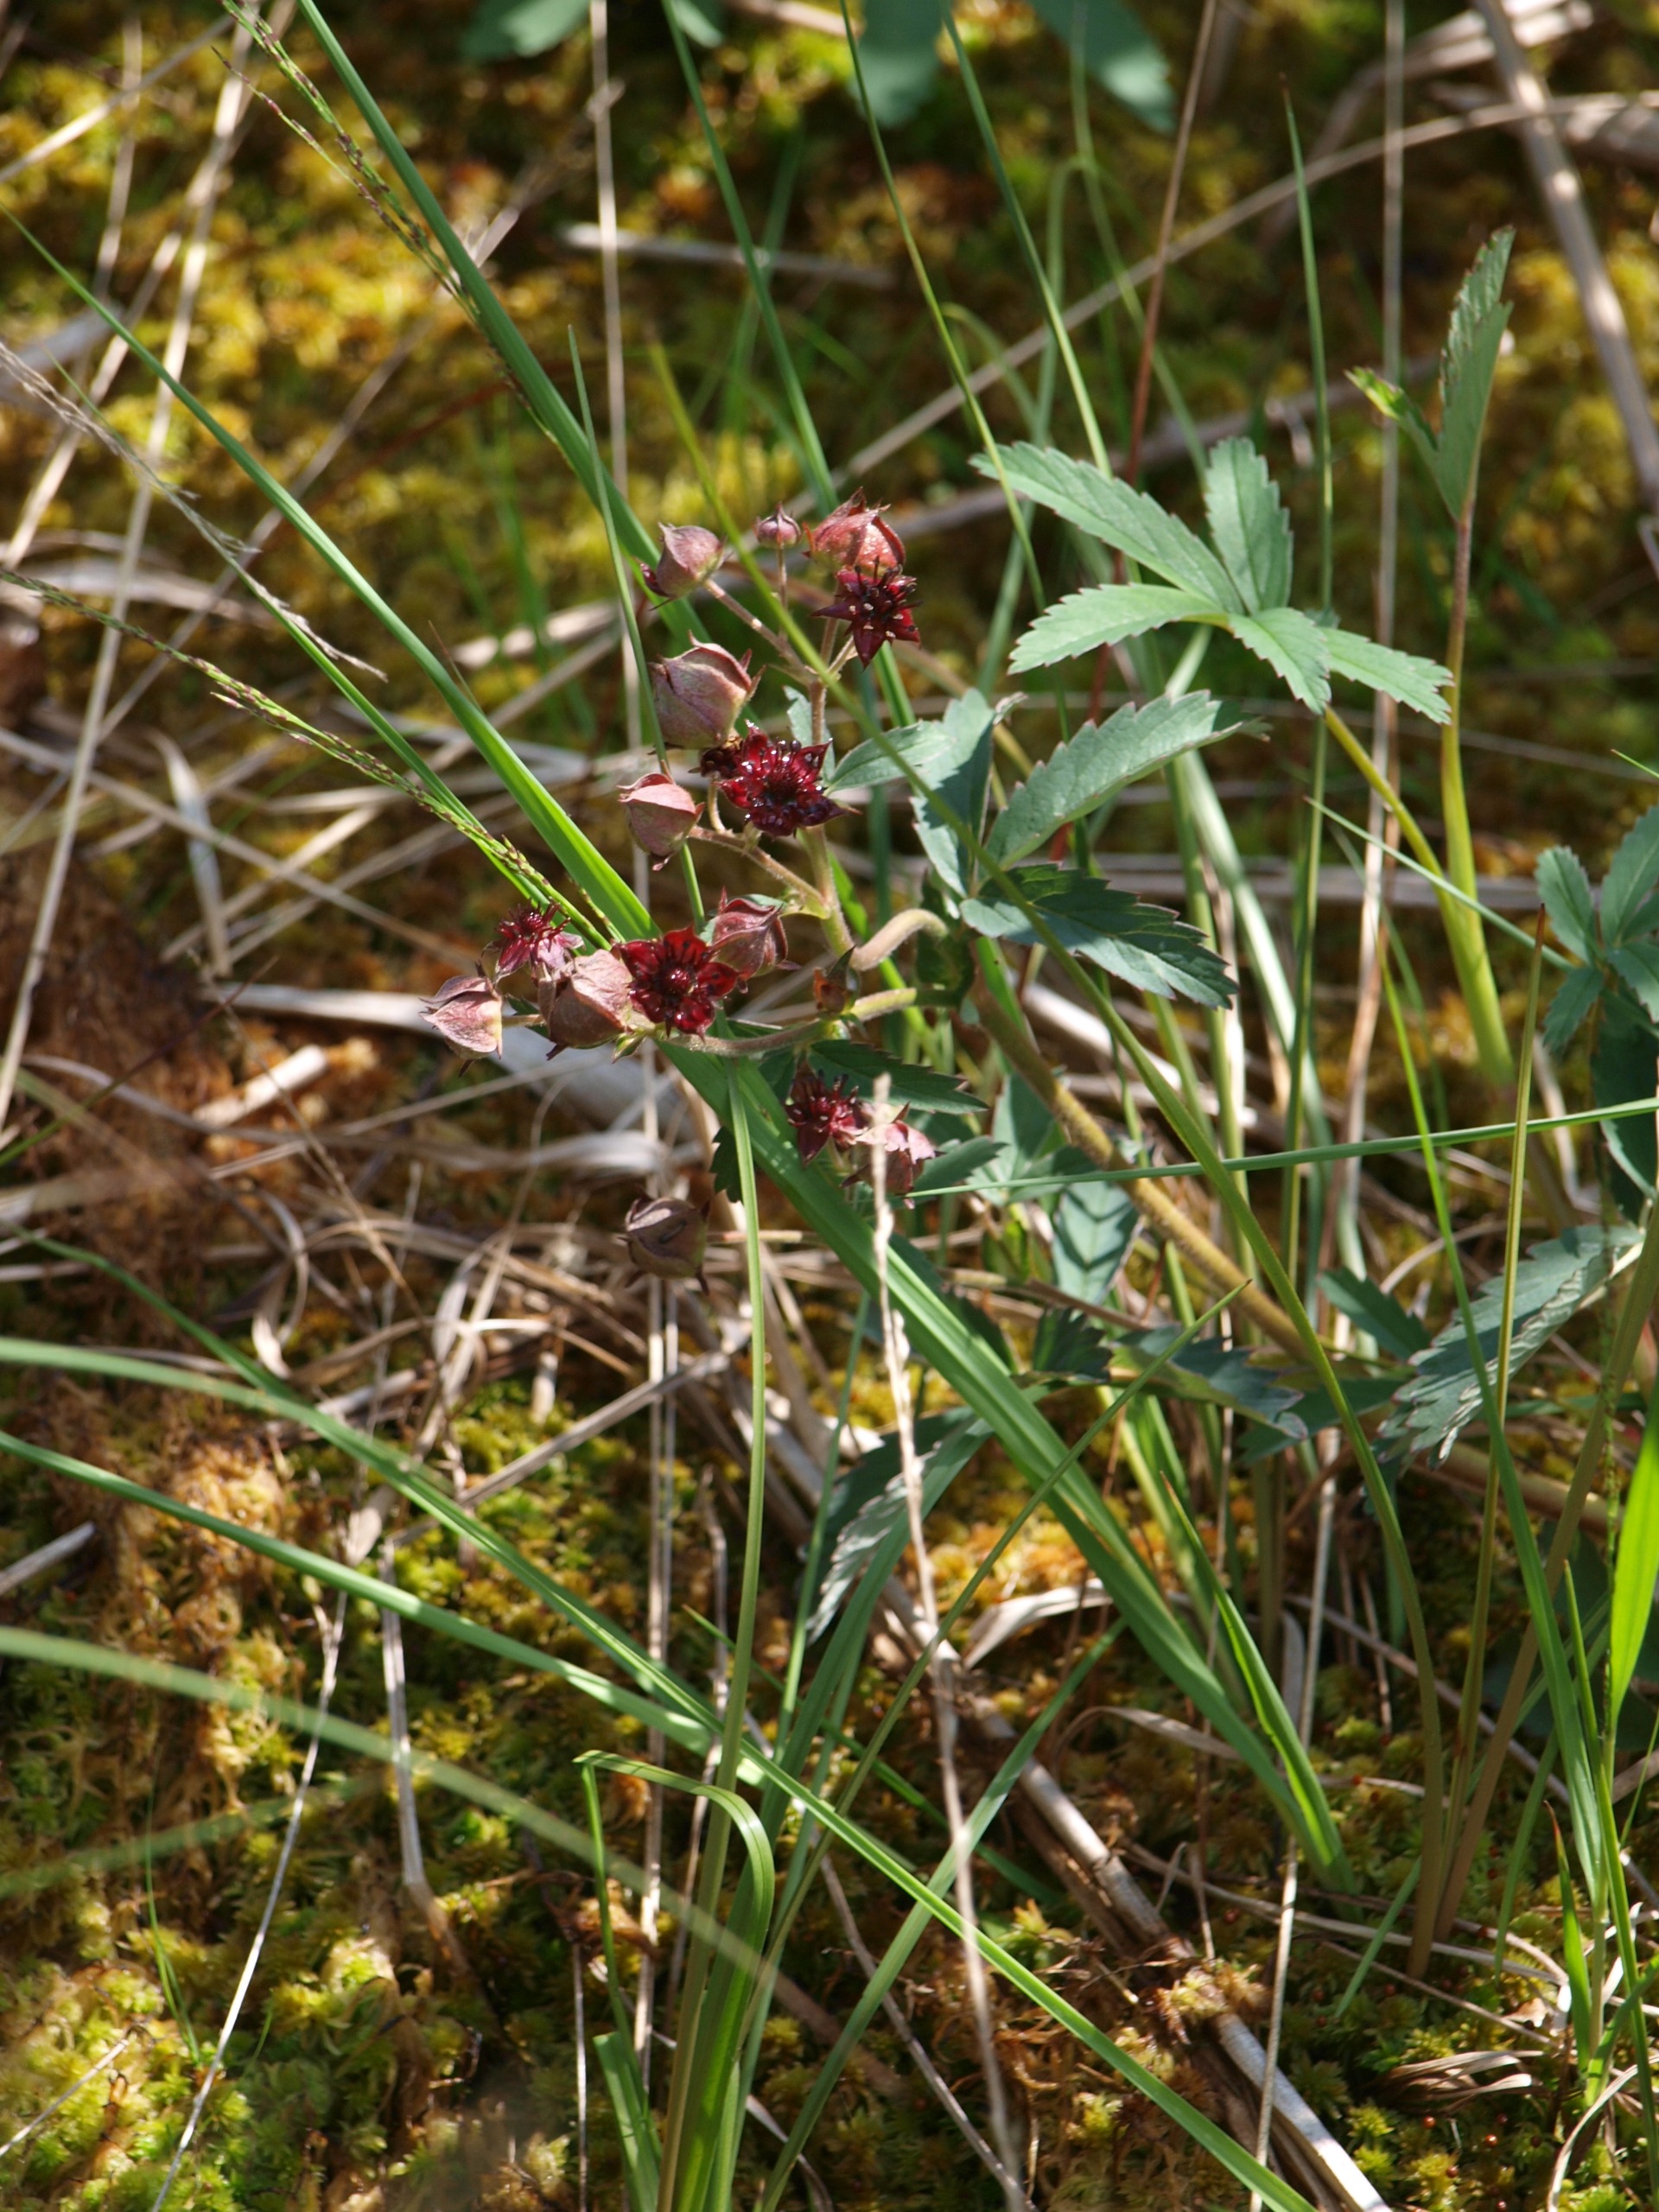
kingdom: Plantae
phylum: Tracheophyta
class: Magnoliopsida
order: Rosales
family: Rosaceae
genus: Comarum
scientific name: Comarum palustre
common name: Kragefod
